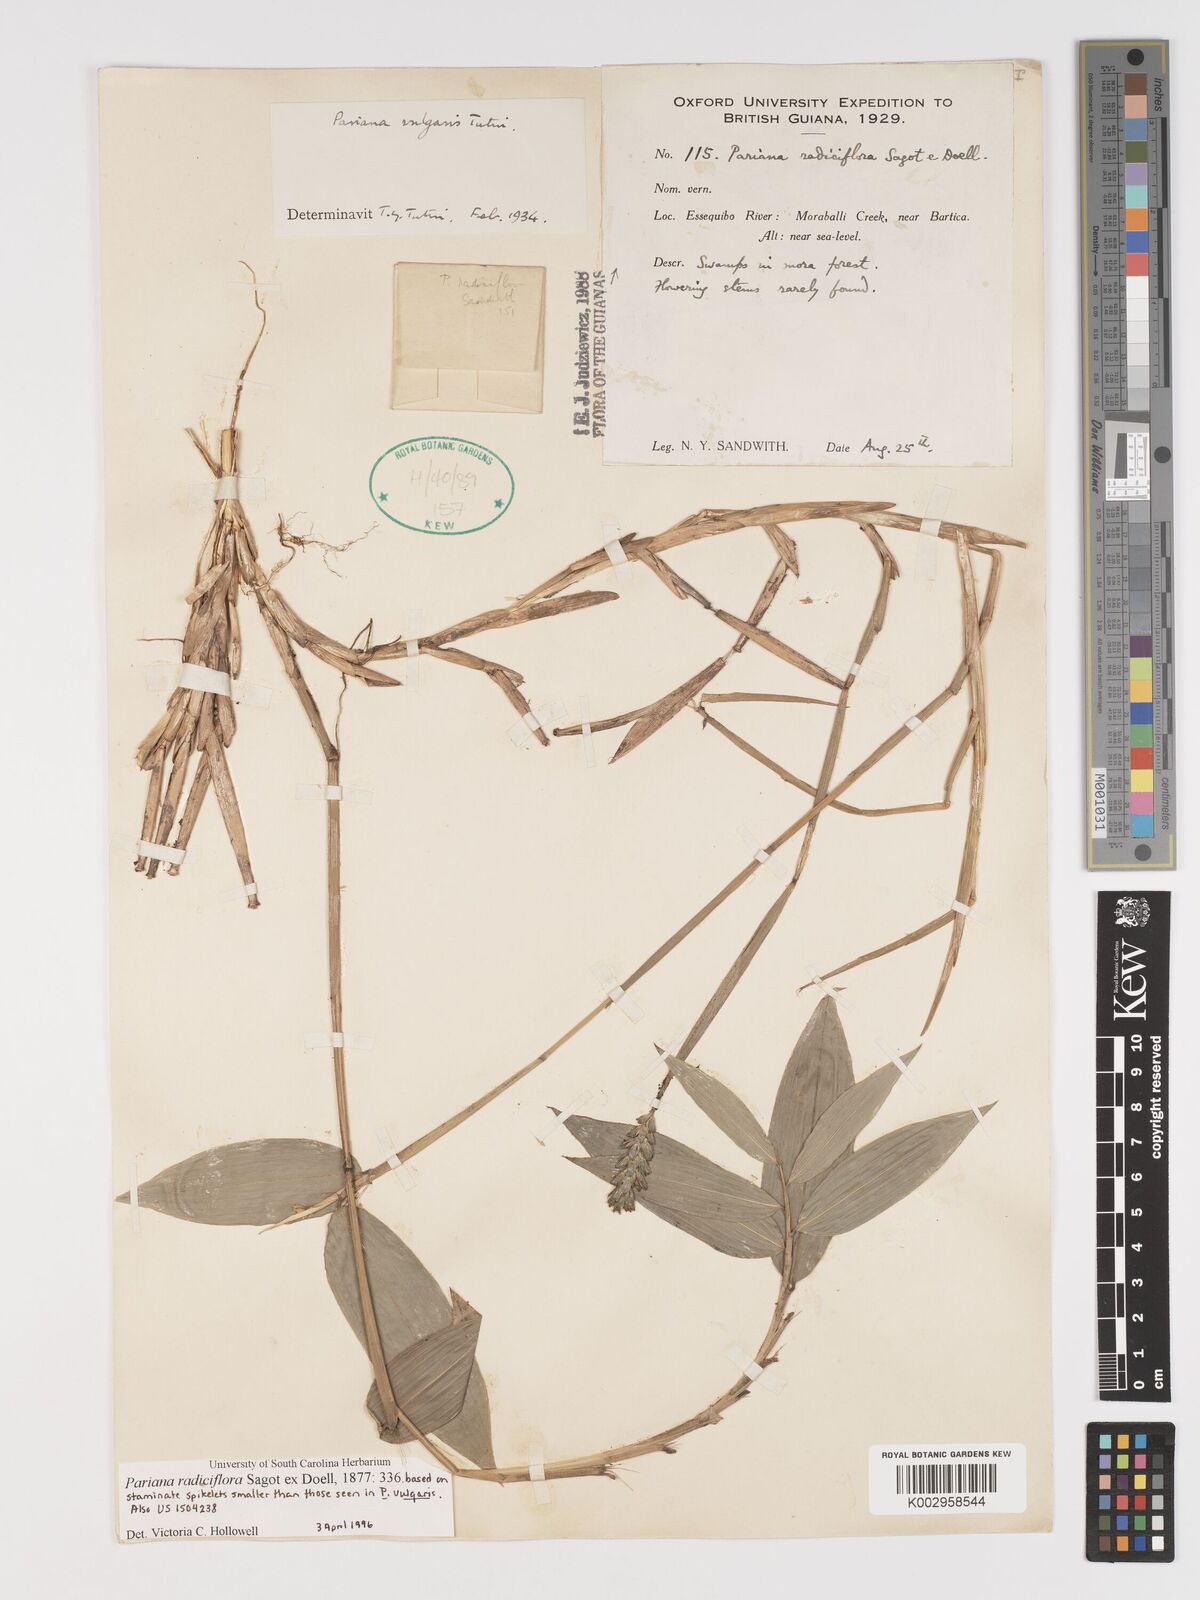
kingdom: Plantae
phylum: Tracheophyta
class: Liliopsida
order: Poales
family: Poaceae
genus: Pariana
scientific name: Pariana radiciflora
